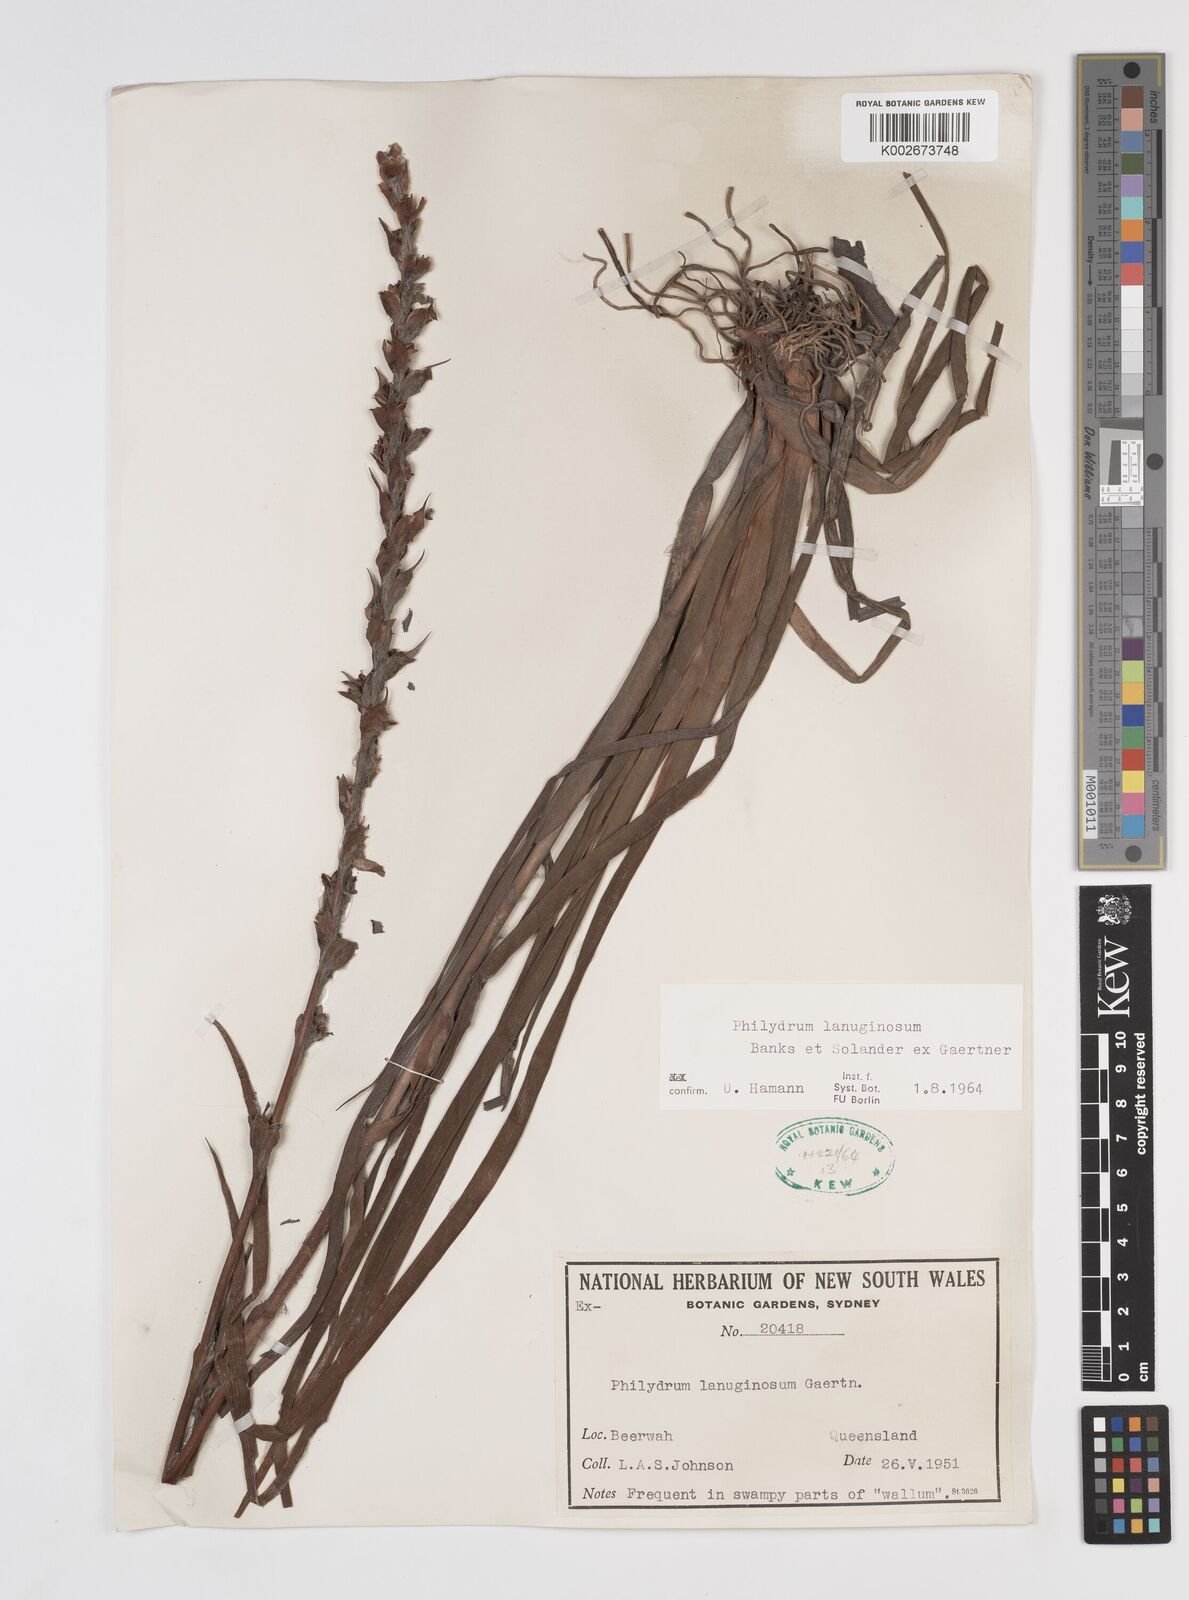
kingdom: Plantae
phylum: Tracheophyta
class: Liliopsida
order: Commelinales
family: Philydraceae
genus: Philydrum
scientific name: Philydrum lanuginosum
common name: Woolly frog's mouth
